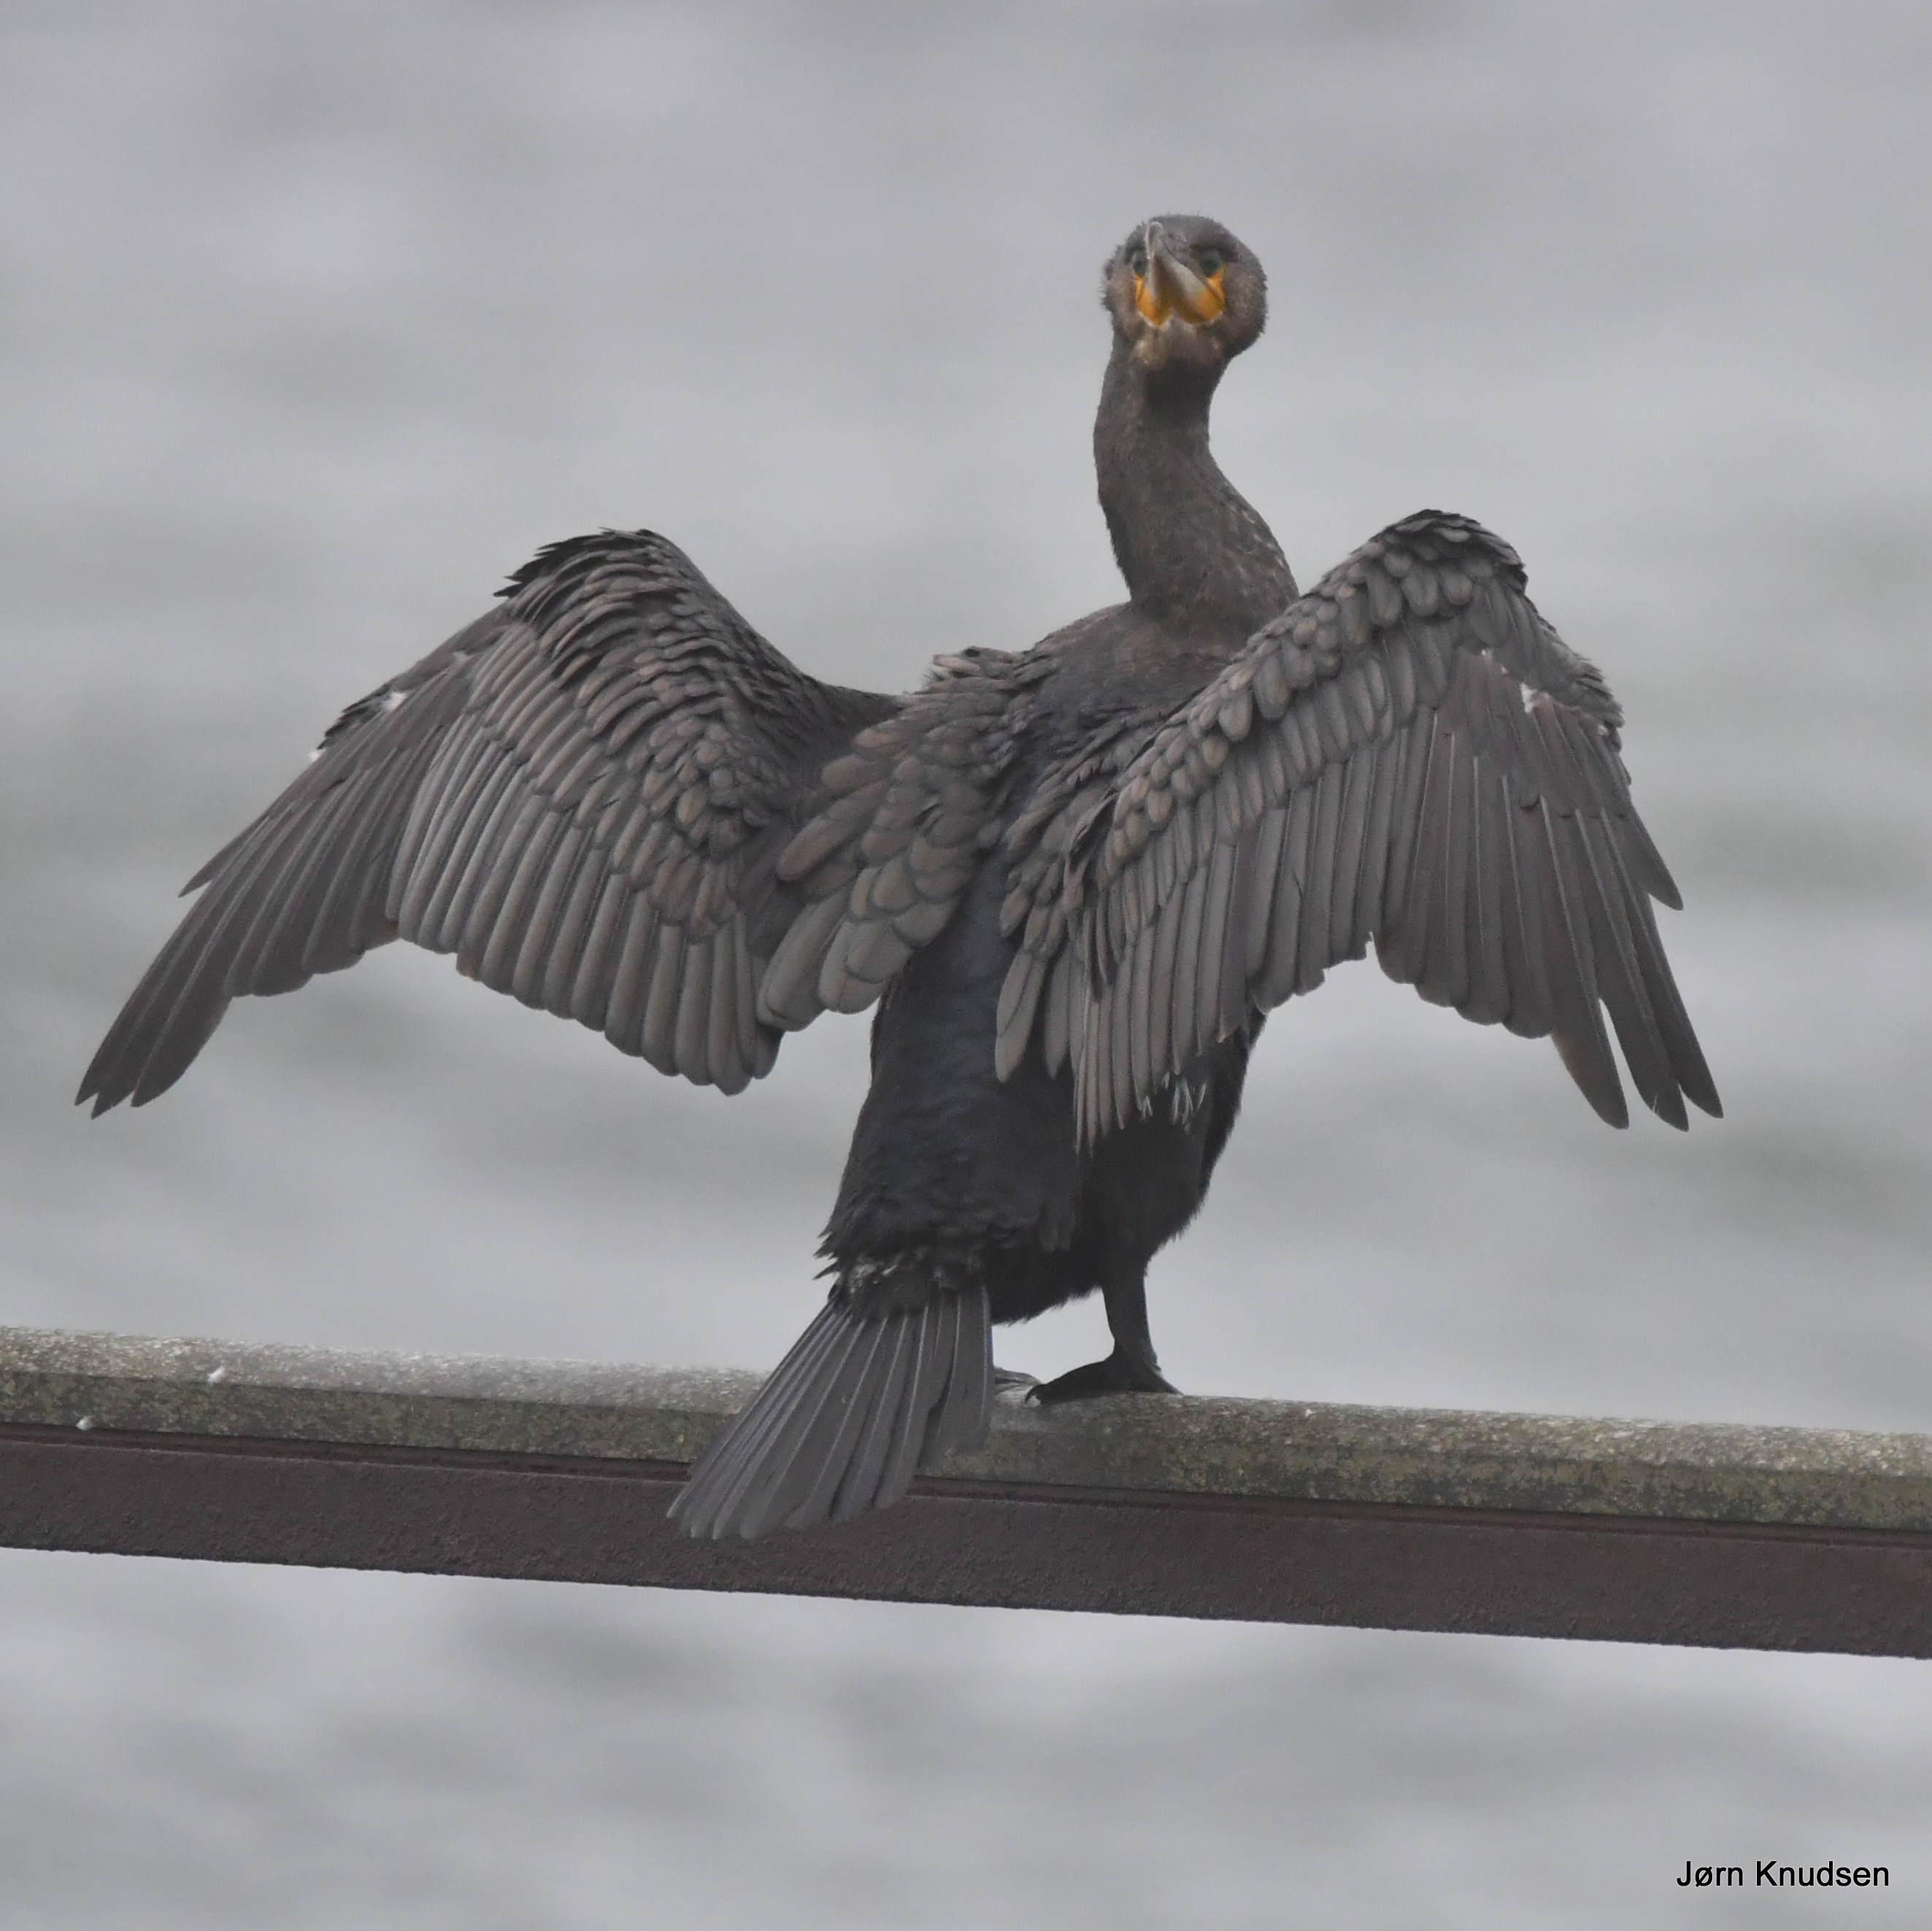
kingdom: Animalia
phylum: Chordata
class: Aves
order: Suliformes
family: Phalacrocoracidae
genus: Phalacrocorax
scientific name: Phalacrocorax carbo
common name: Skarv
